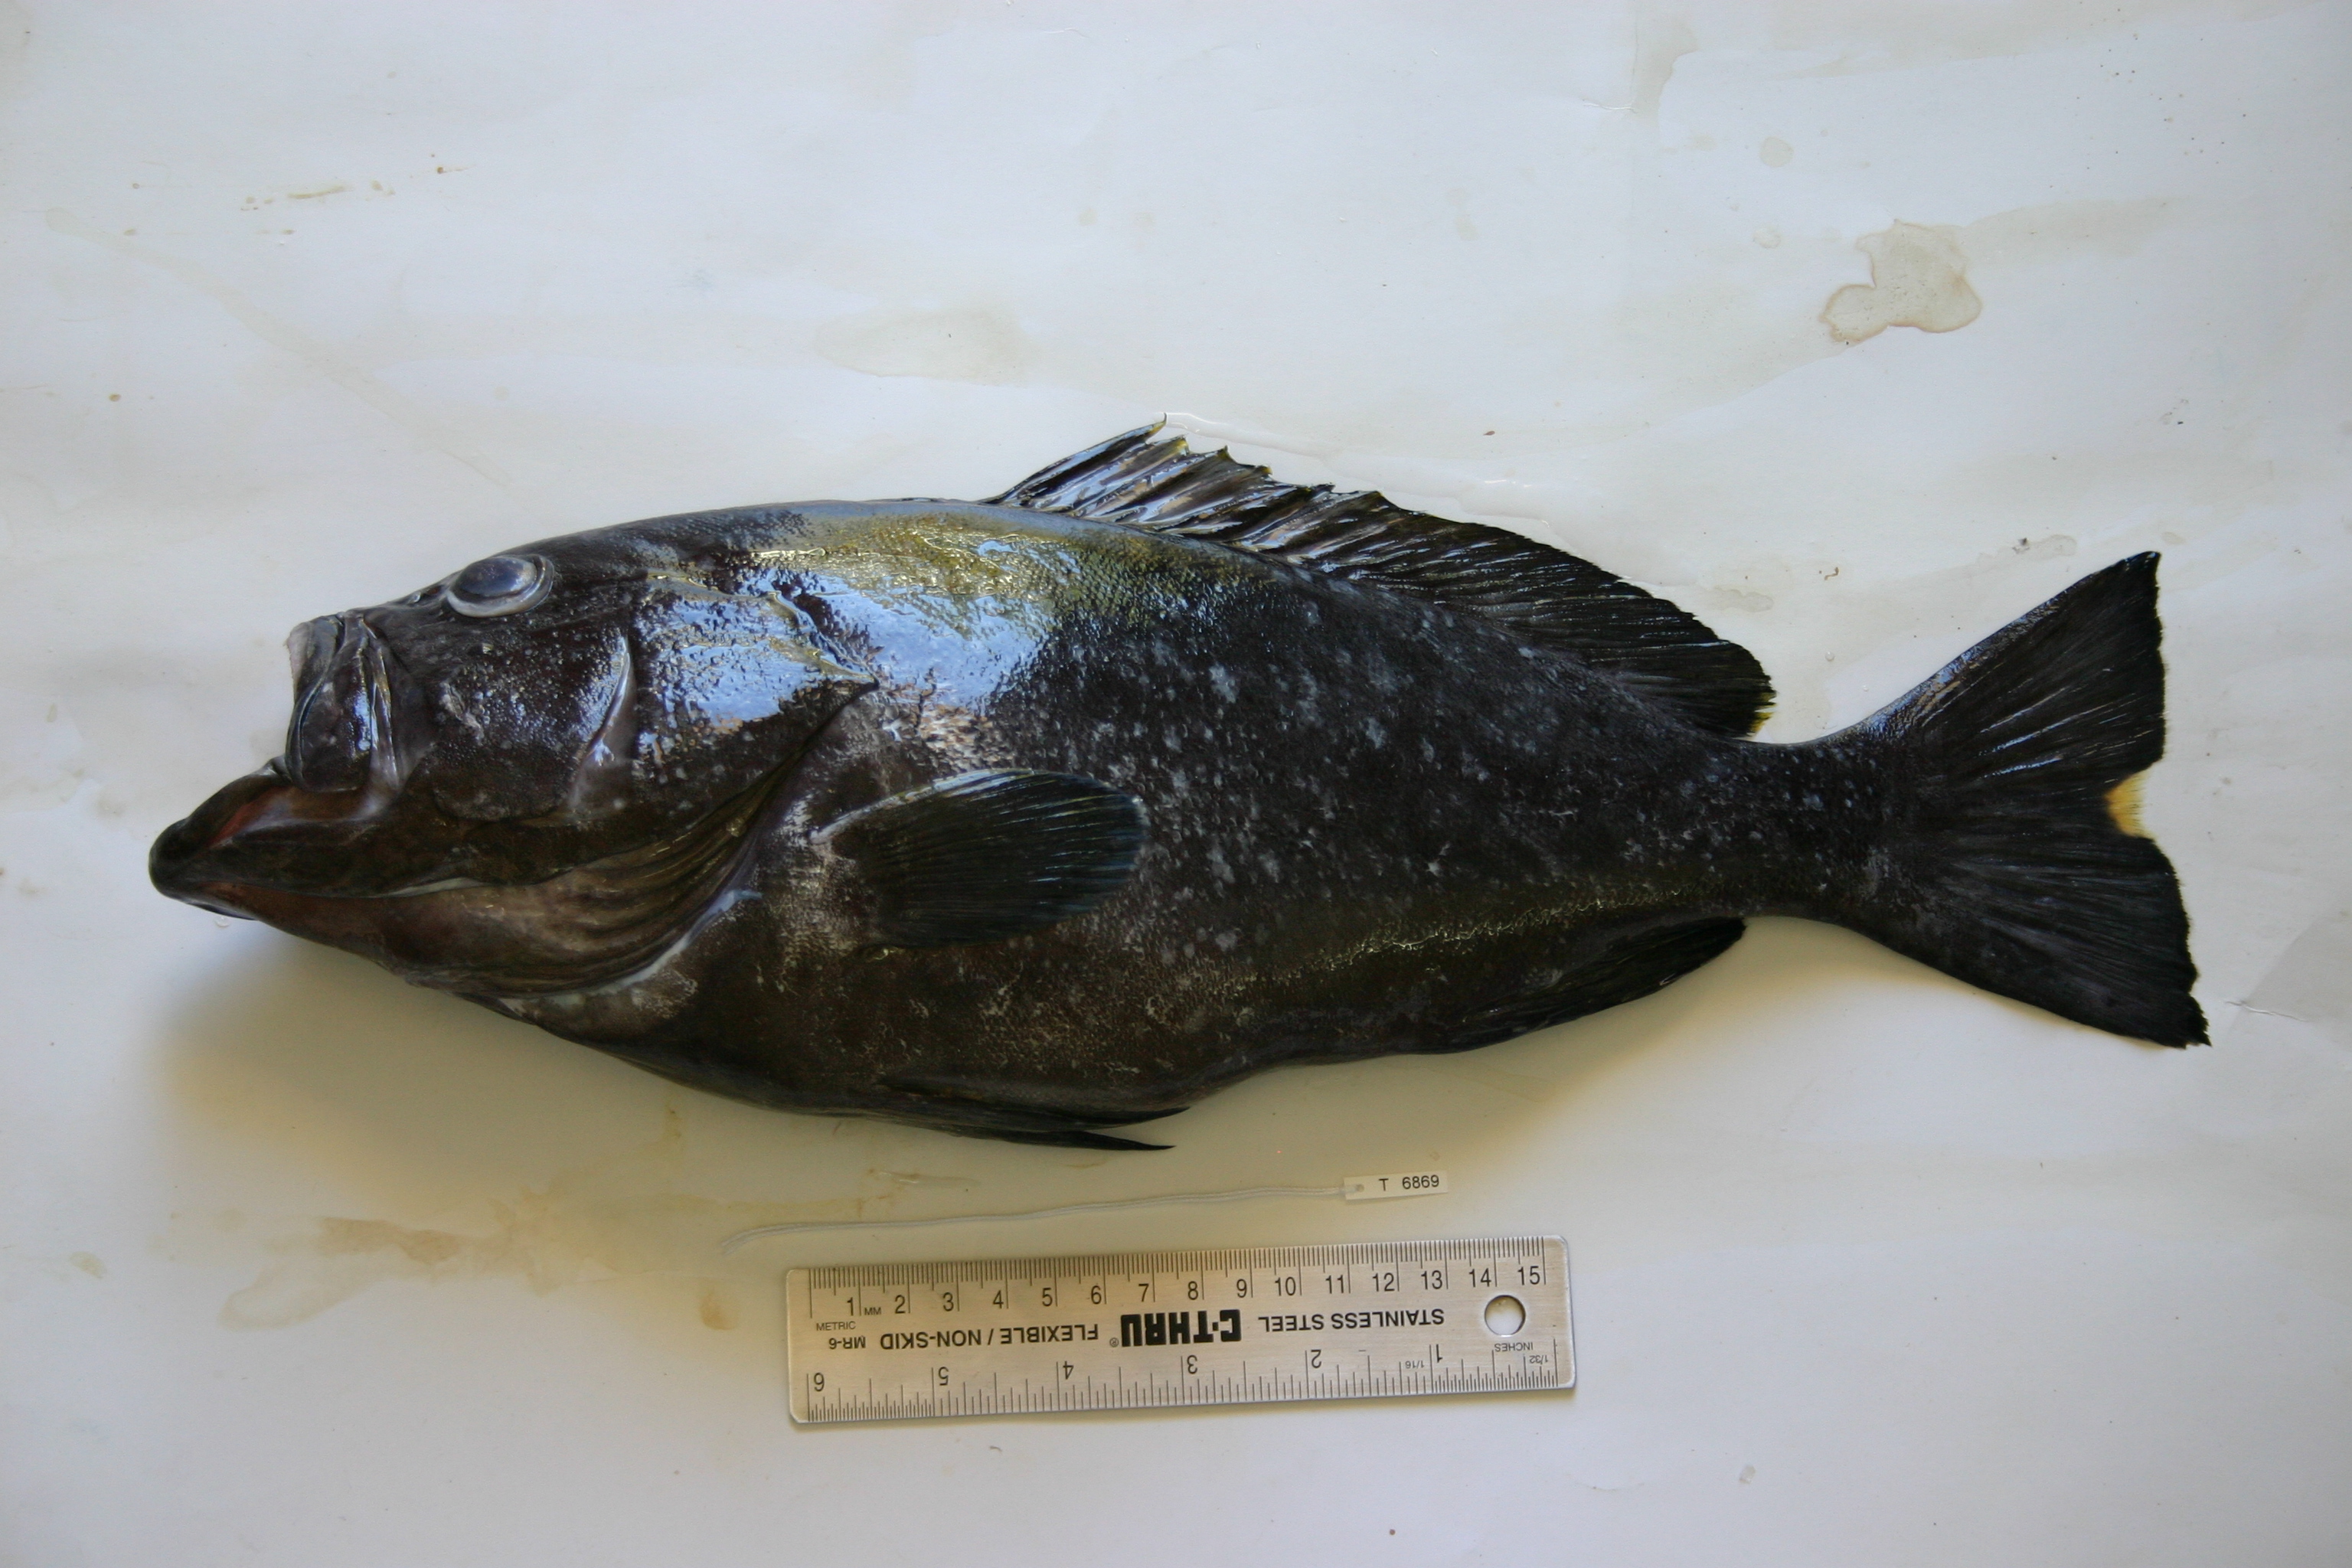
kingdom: Animalia
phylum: Chordata
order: Perciformes
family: Serranidae
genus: Epinephelus
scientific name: Epinephelus multinotatus
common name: Rankin's cod
